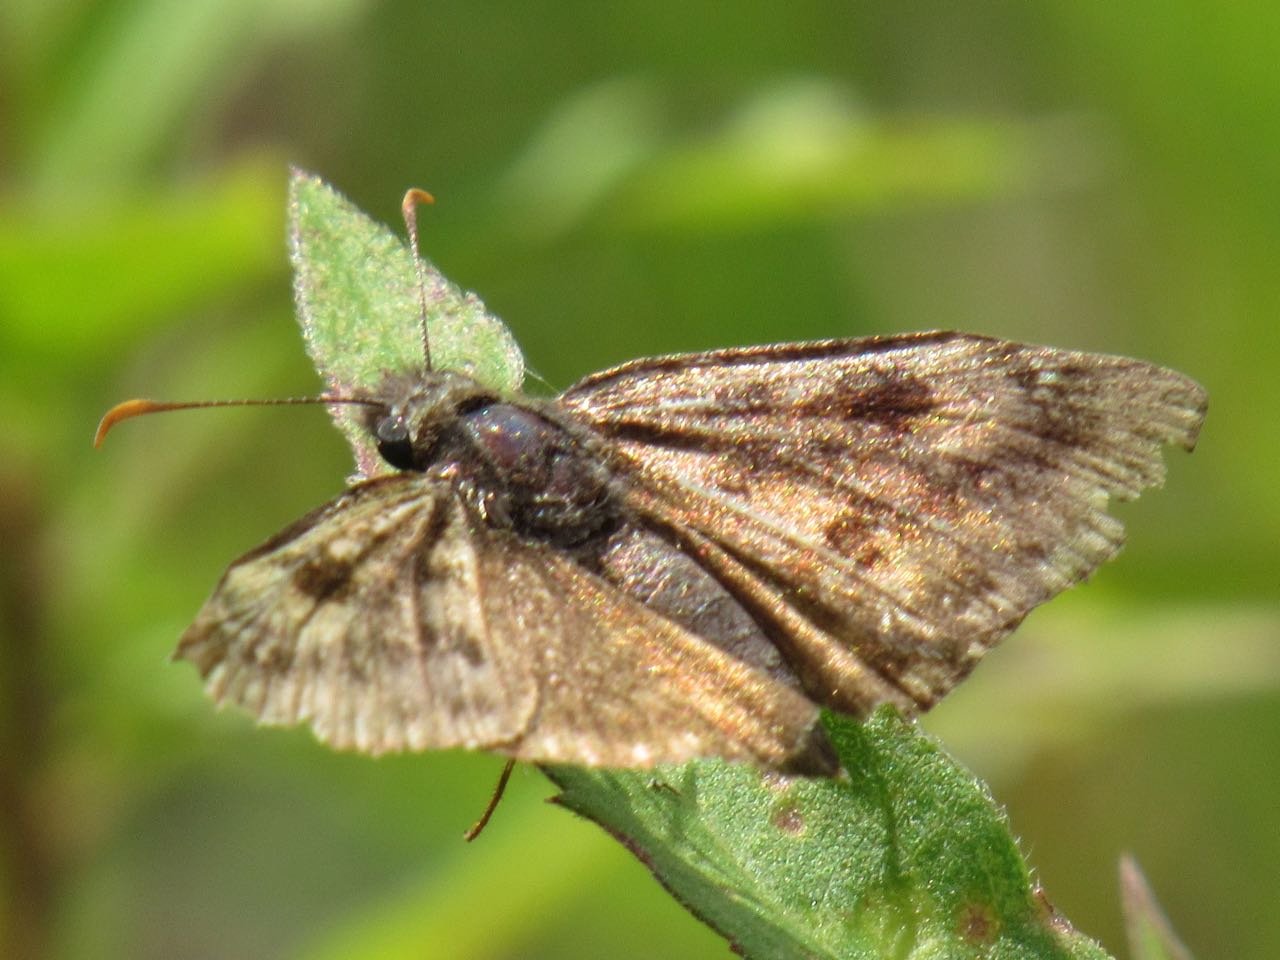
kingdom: Animalia
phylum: Arthropoda
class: Insecta
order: Lepidoptera
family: Hesperiidae
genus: Gesta
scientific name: Gesta
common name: Wild Indigo Duskywing
